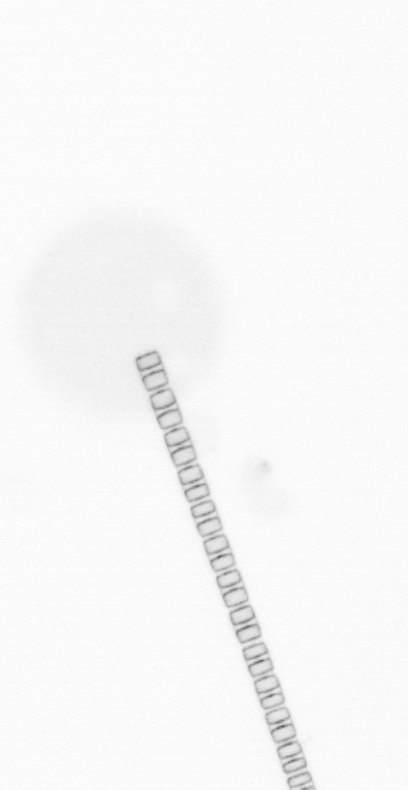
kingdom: Chromista
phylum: Ochrophyta
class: Bacillariophyceae
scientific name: Bacillariophyceae
